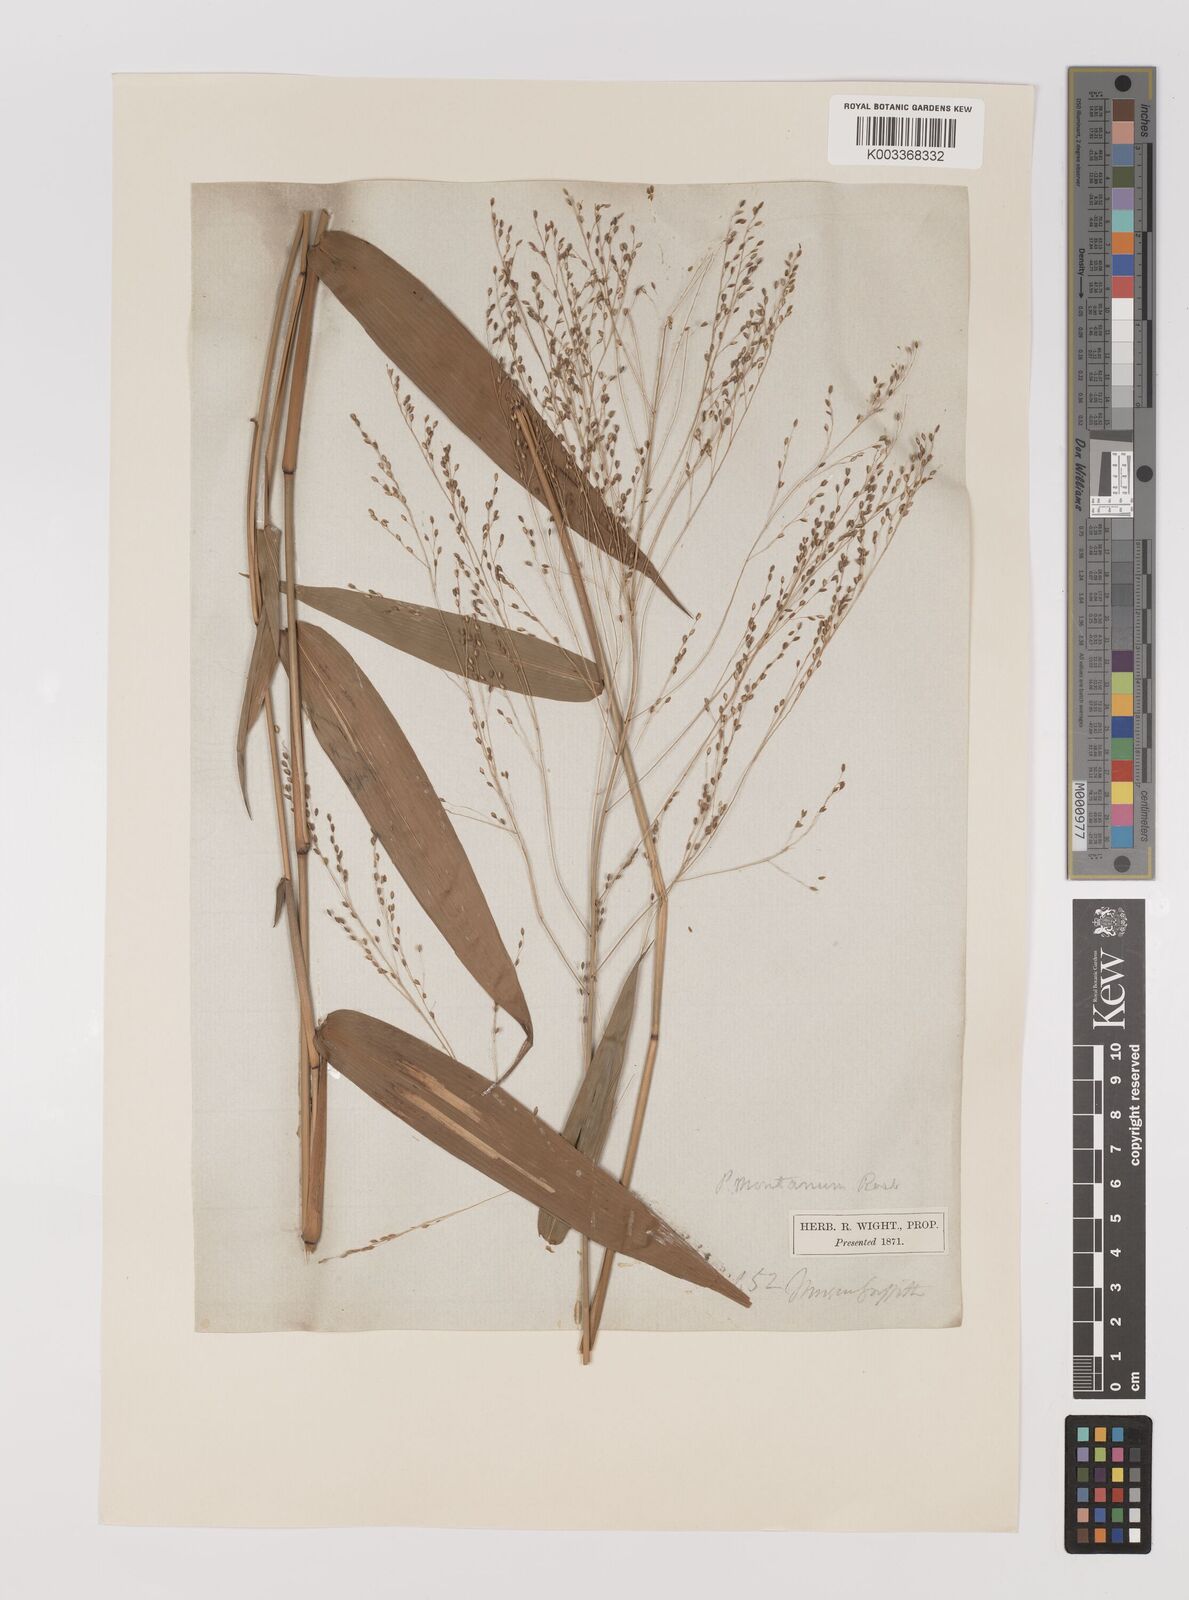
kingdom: Plantae
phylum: Tracheophyta
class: Liliopsida
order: Poales
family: Poaceae
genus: Panicum
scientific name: Panicum notatum
